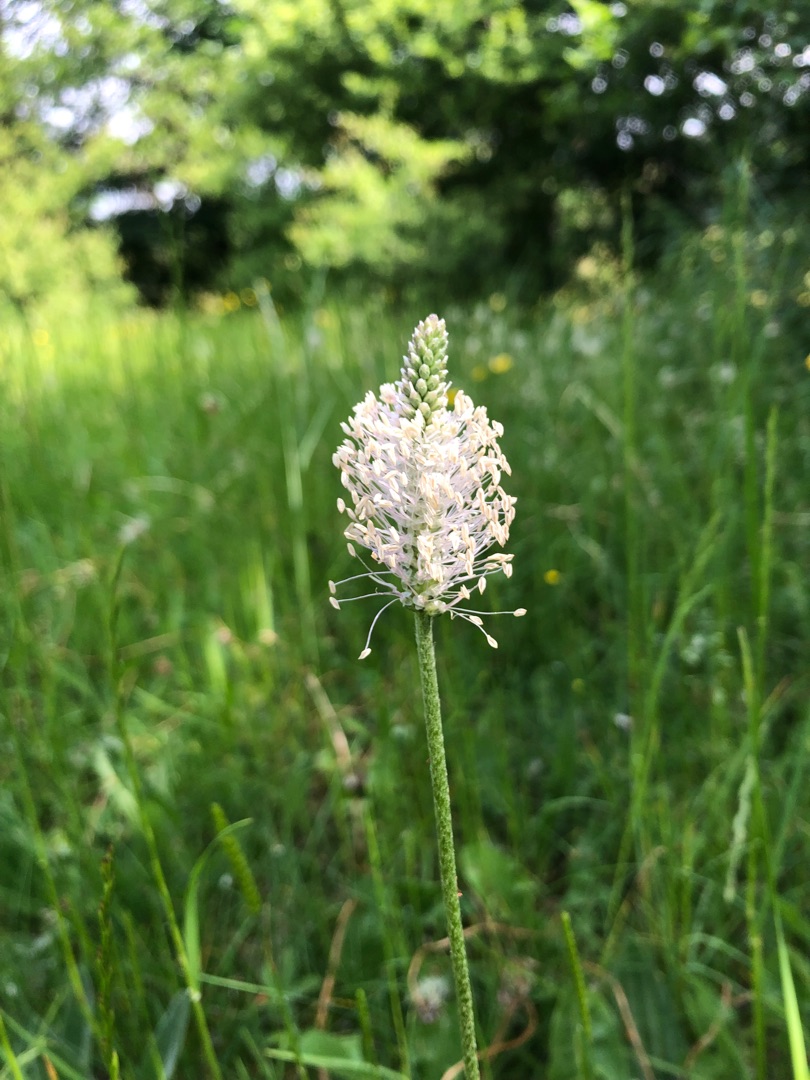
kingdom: Plantae
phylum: Tracheophyta
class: Magnoliopsida
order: Lamiales
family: Plantaginaceae
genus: Plantago
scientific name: Plantago media
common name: Dunet vejbred
